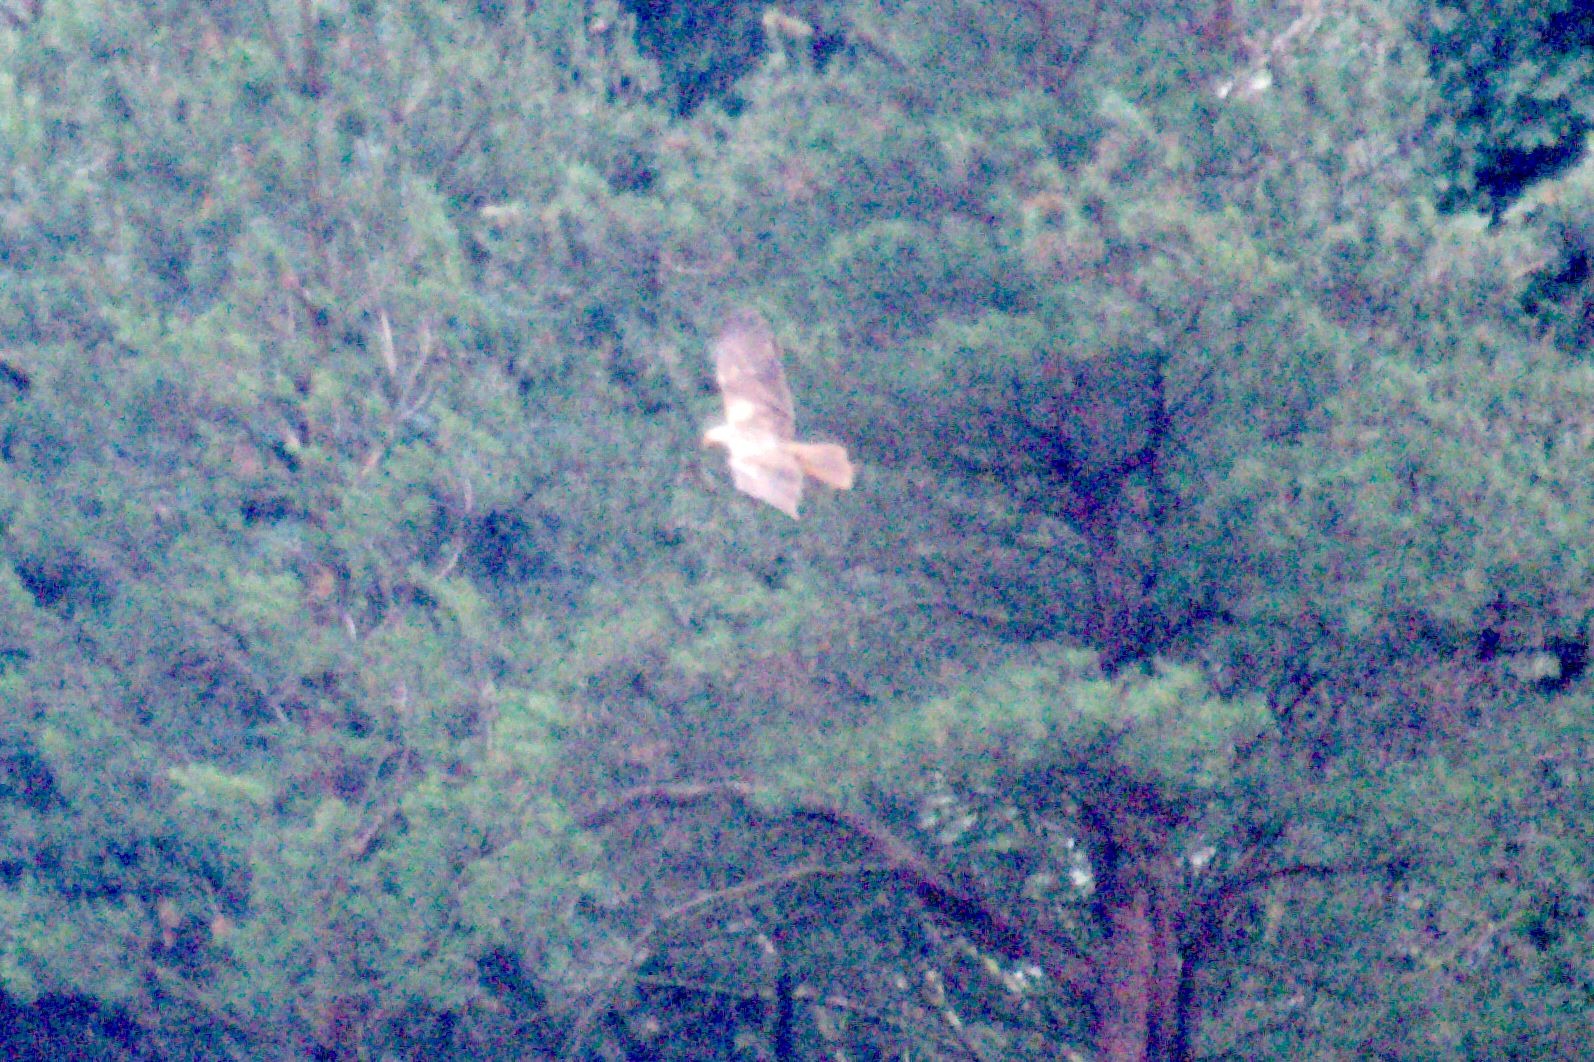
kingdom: Animalia
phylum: Chordata
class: Aves
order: Accipitriformes
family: Accipitridae
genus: Circus
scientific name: Circus aeruginosus
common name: Rørhøg
